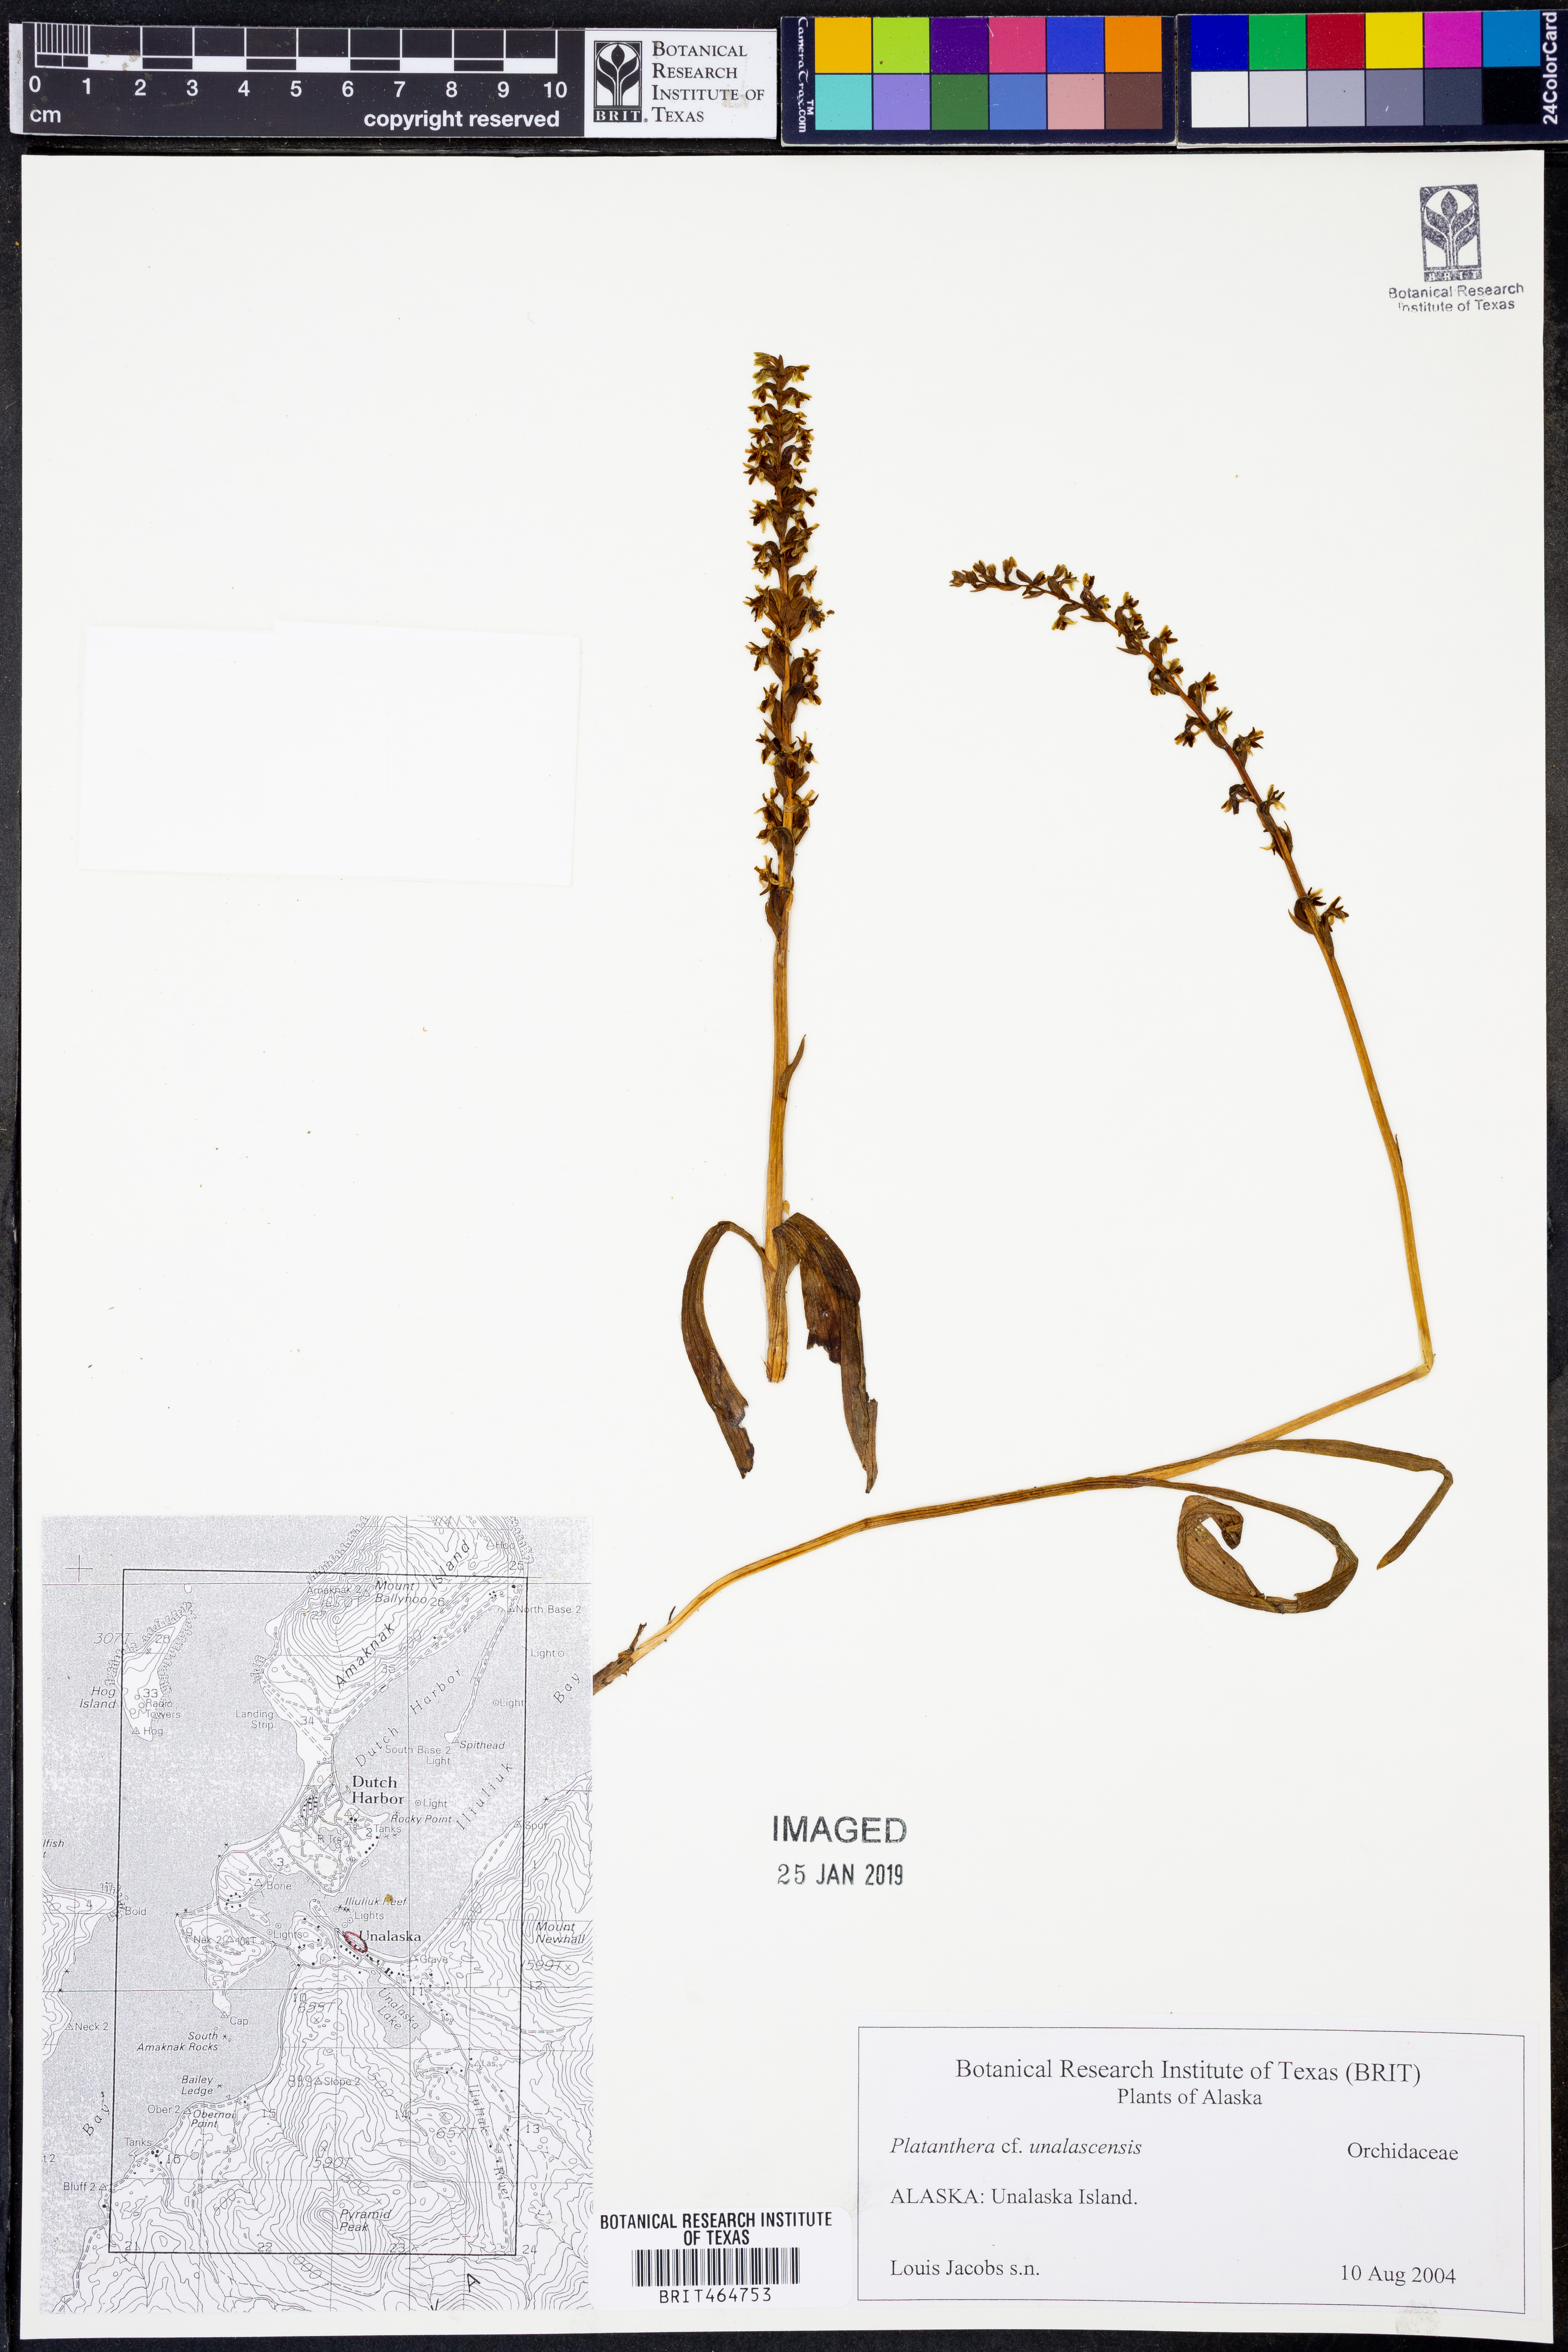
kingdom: Plantae
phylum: Tracheophyta
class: Liliopsida
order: Asparagales
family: Orchidaceae
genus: Platanthera
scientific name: Platanthera unalascensis
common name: Alaska bog orchid
